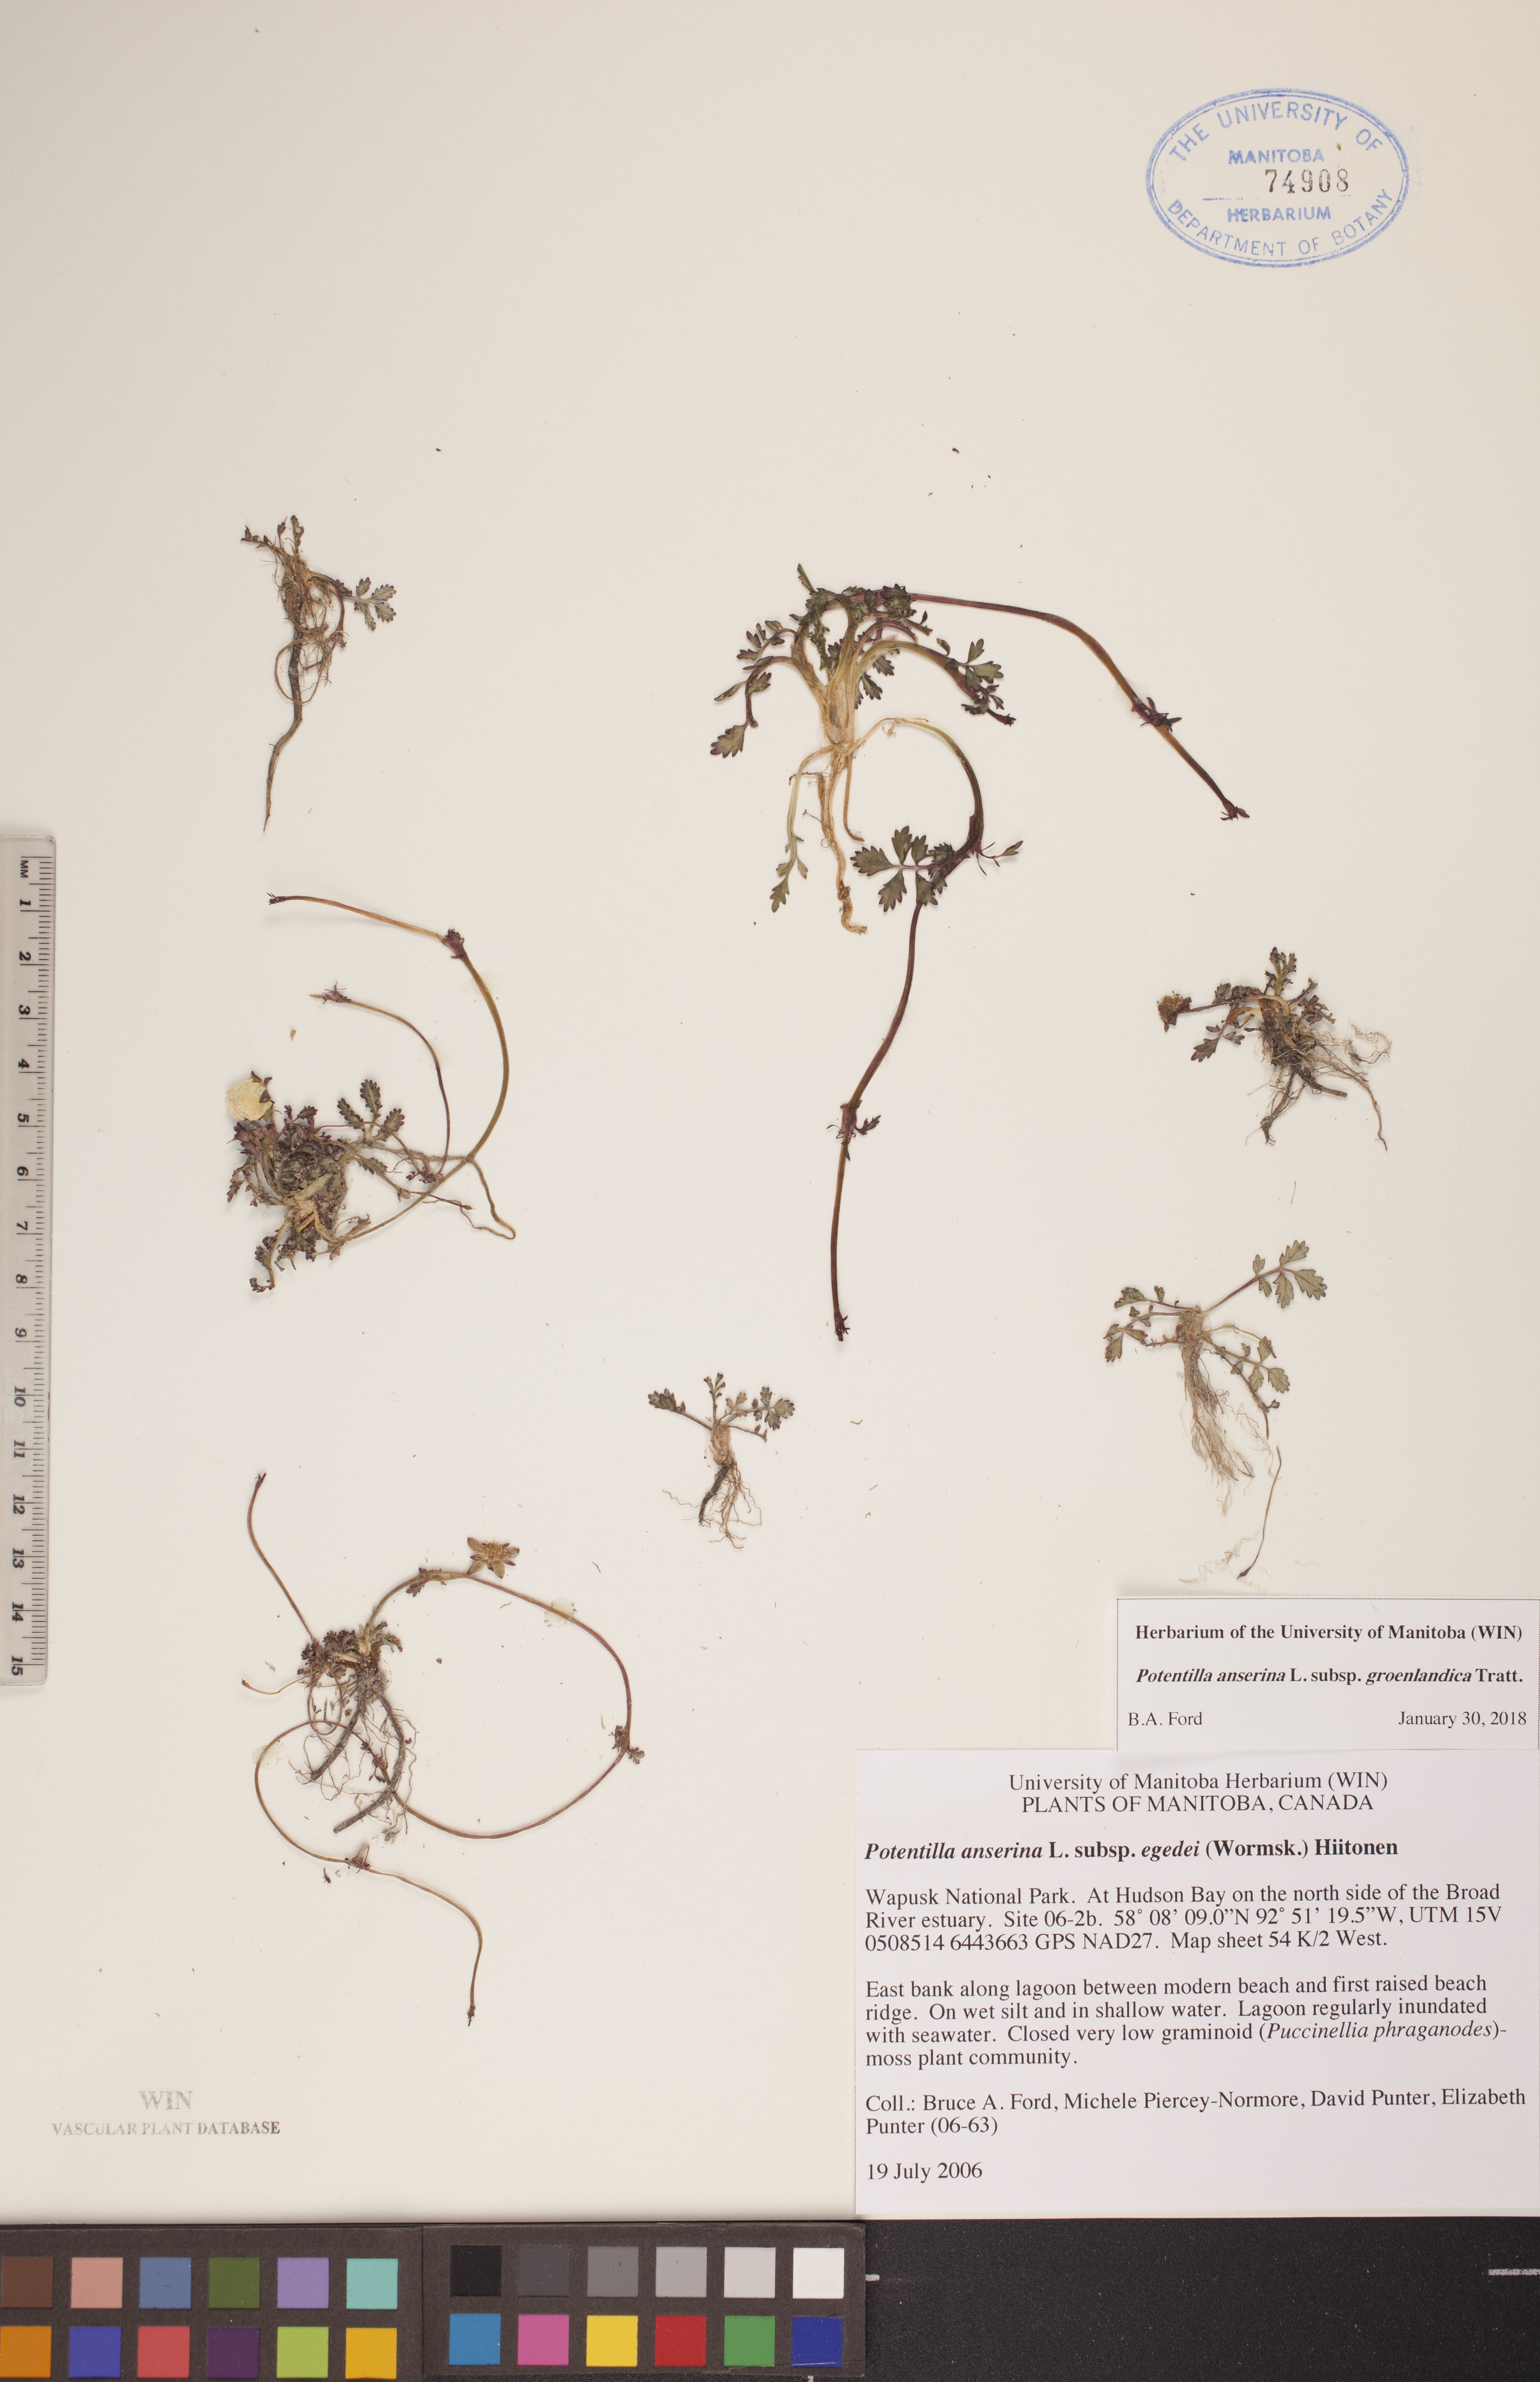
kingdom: Plantae
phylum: Tracheophyta
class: Magnoliopsida
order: Rosales
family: Rosaceae
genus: Argentina
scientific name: Argentina anserina
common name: Common silverweed
